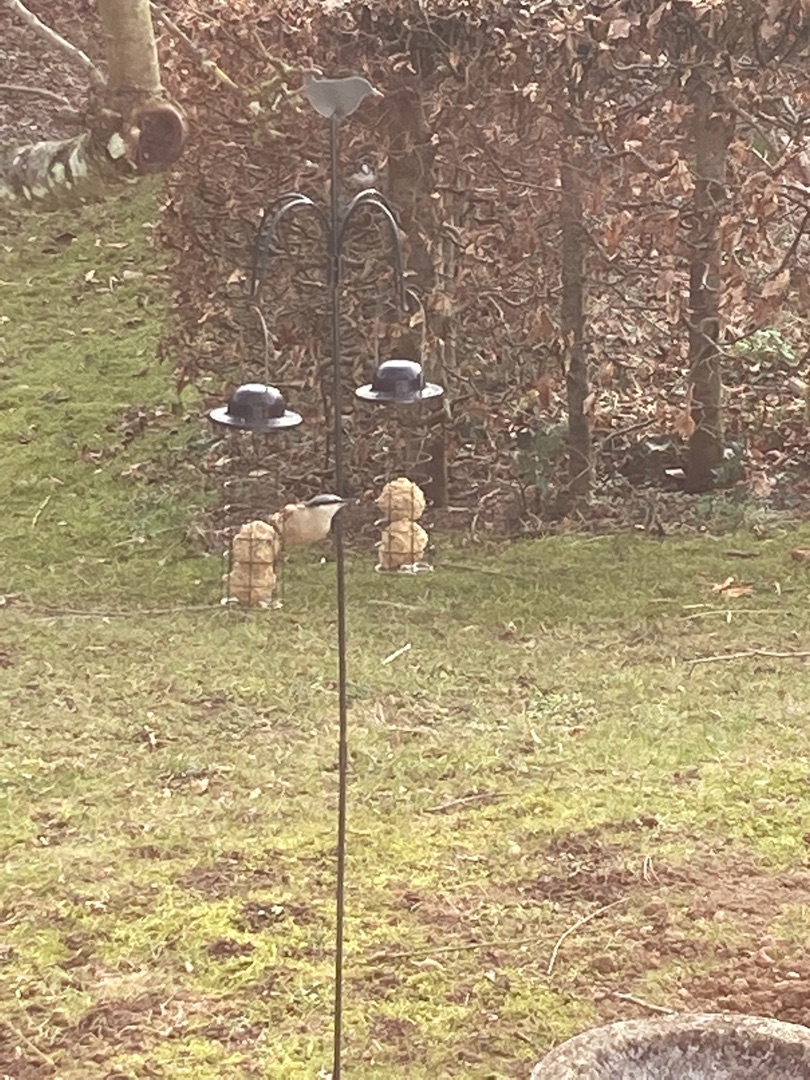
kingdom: Animalia
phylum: Chordata
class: Aves
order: Passeriformes
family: Sittidae
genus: Sitta
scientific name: Sitta europaea
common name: Spætmejse
